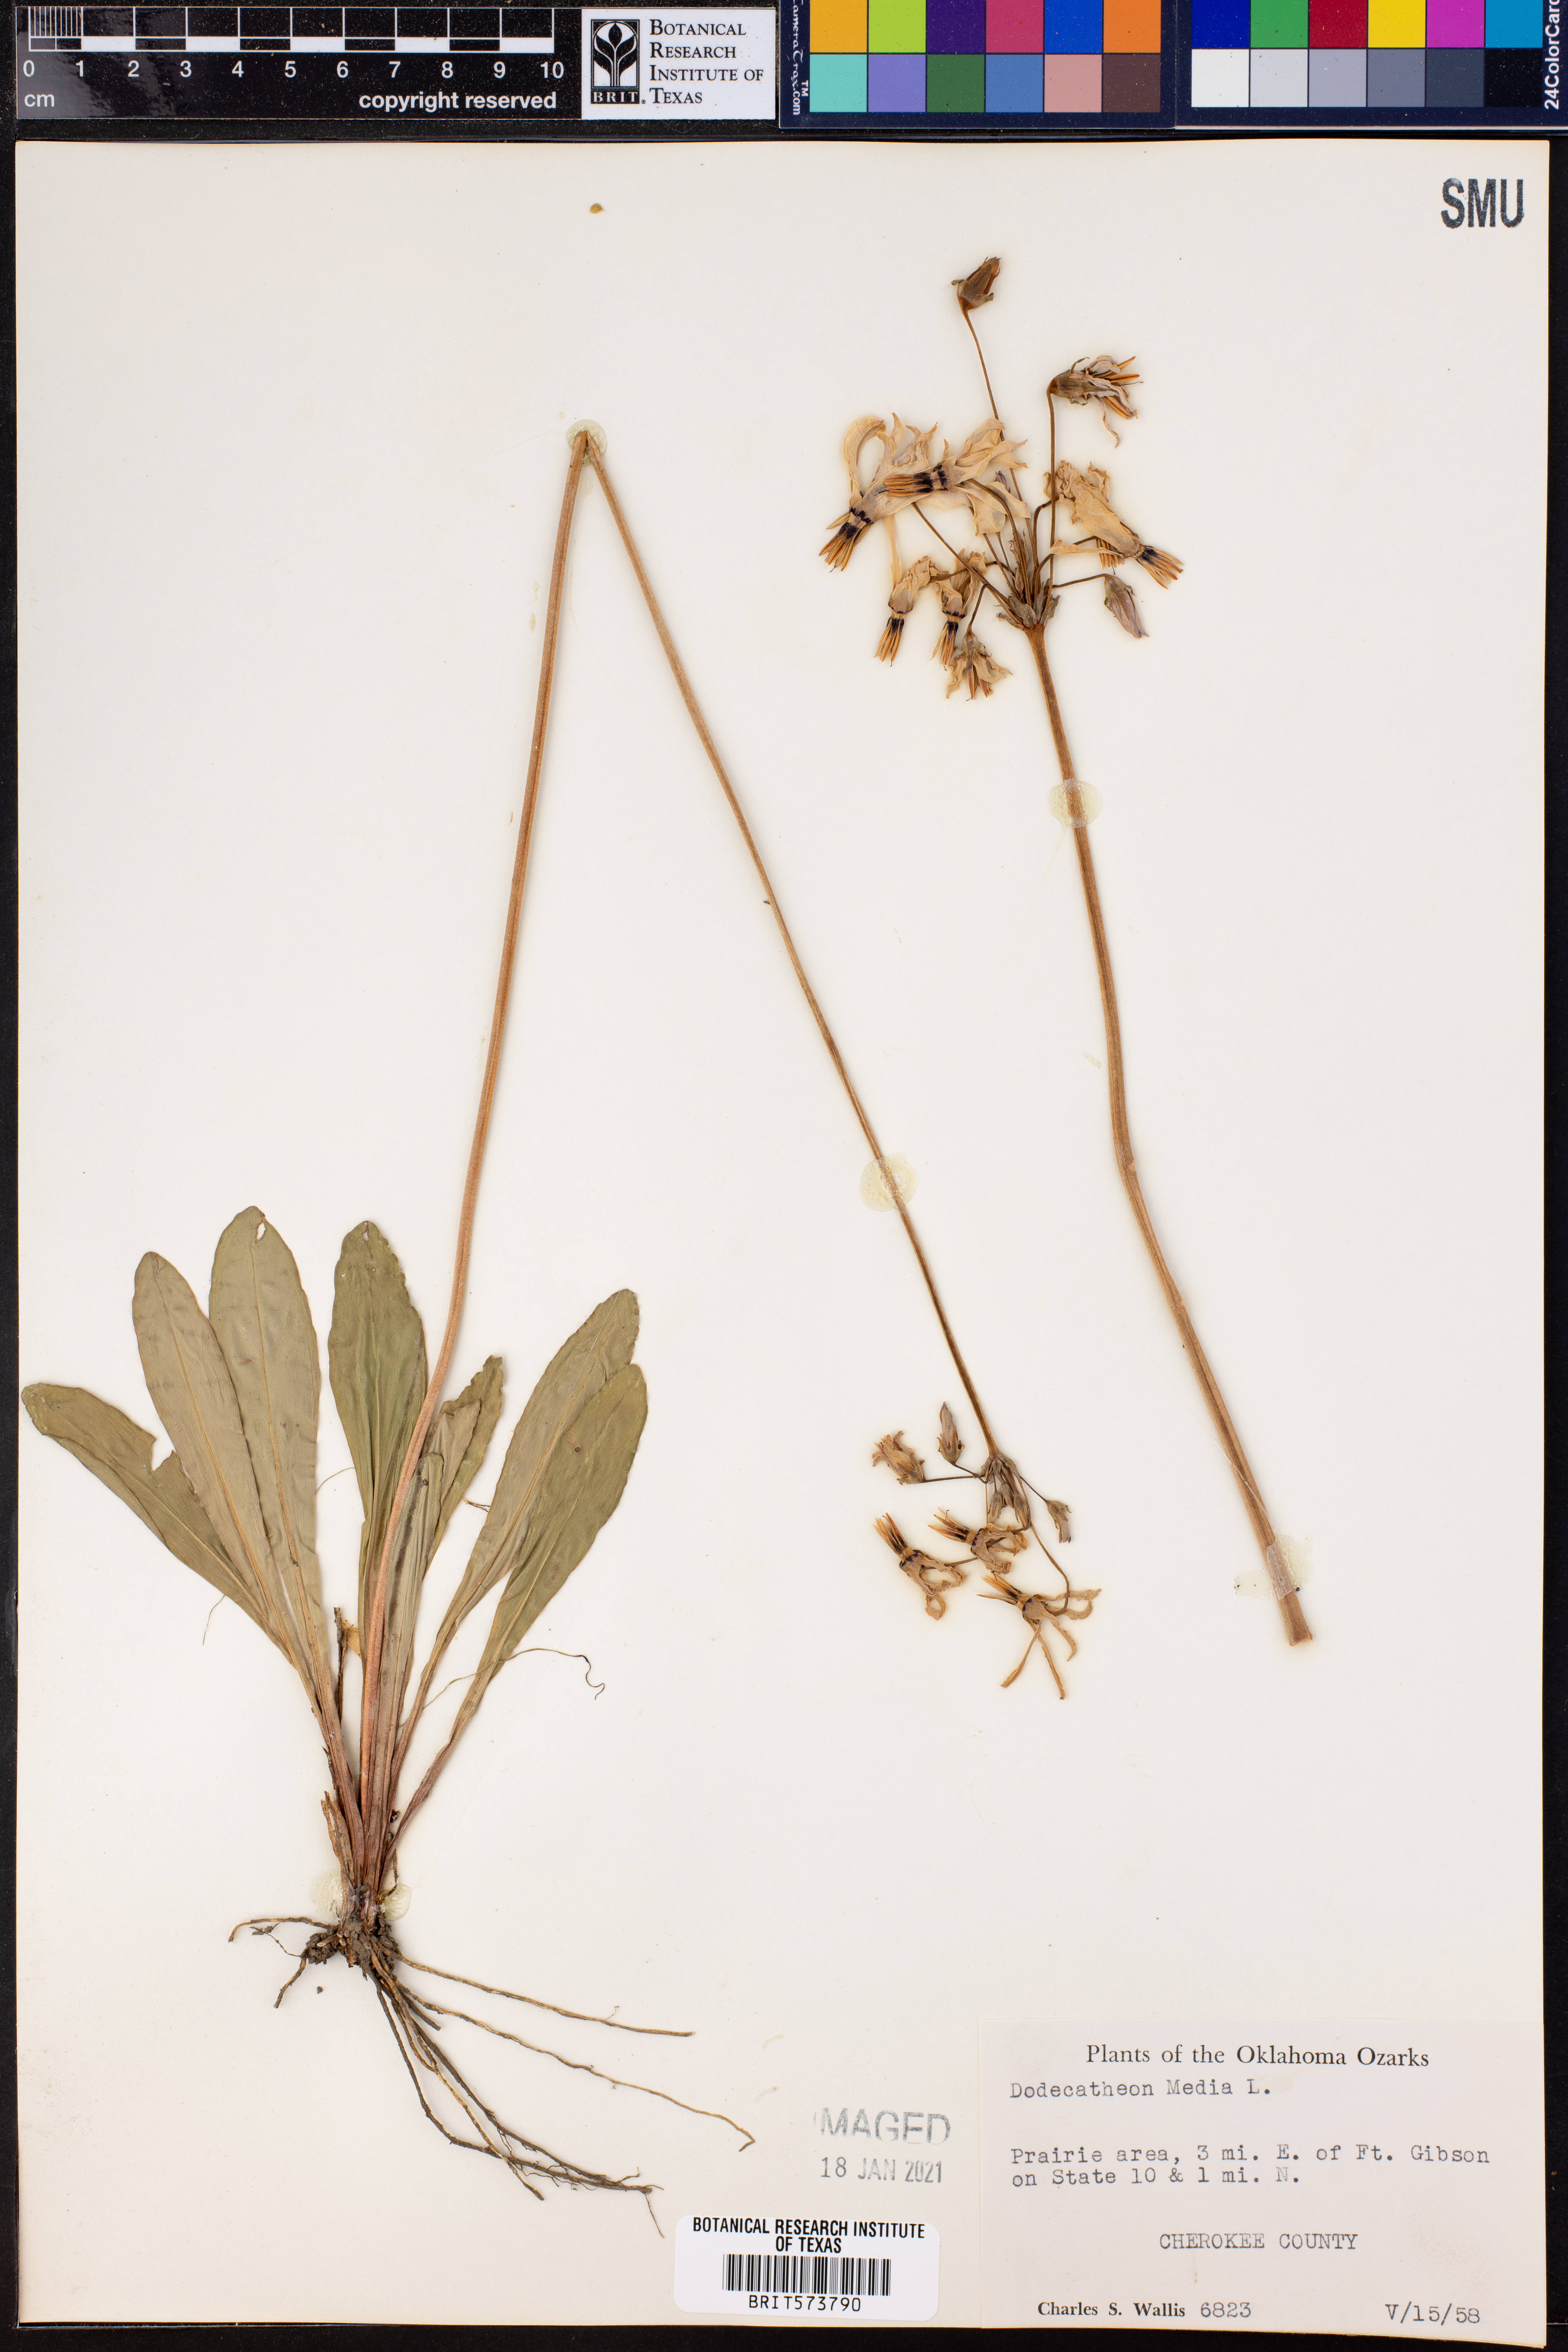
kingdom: Plantae
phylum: Tracheophyta
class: Magnoliopsida
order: Ericales
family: Primulaceae
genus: Dodecatheon
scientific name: Dodecatheon meadia
